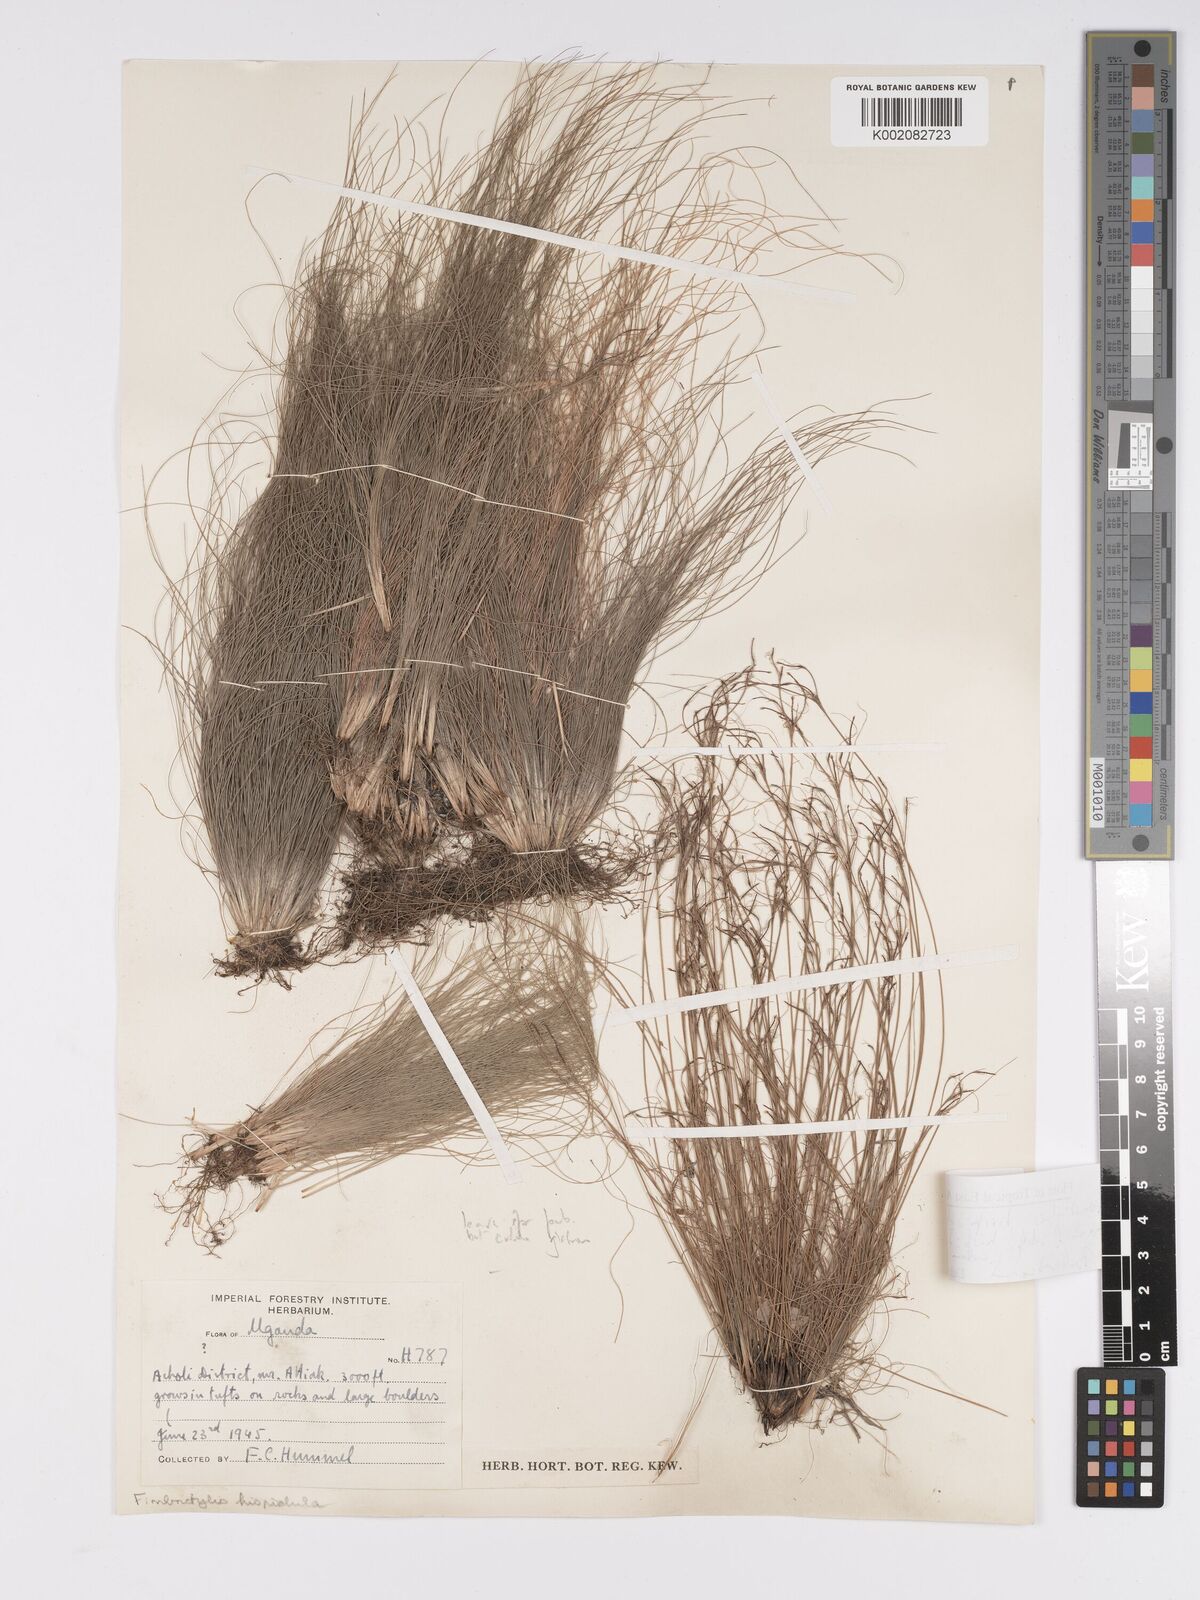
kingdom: Plantae
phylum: Tracheophyta
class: Liliopsida
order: Poales
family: Cyperaceae
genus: Bulbostylis
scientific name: Bulbostylis hispidula
